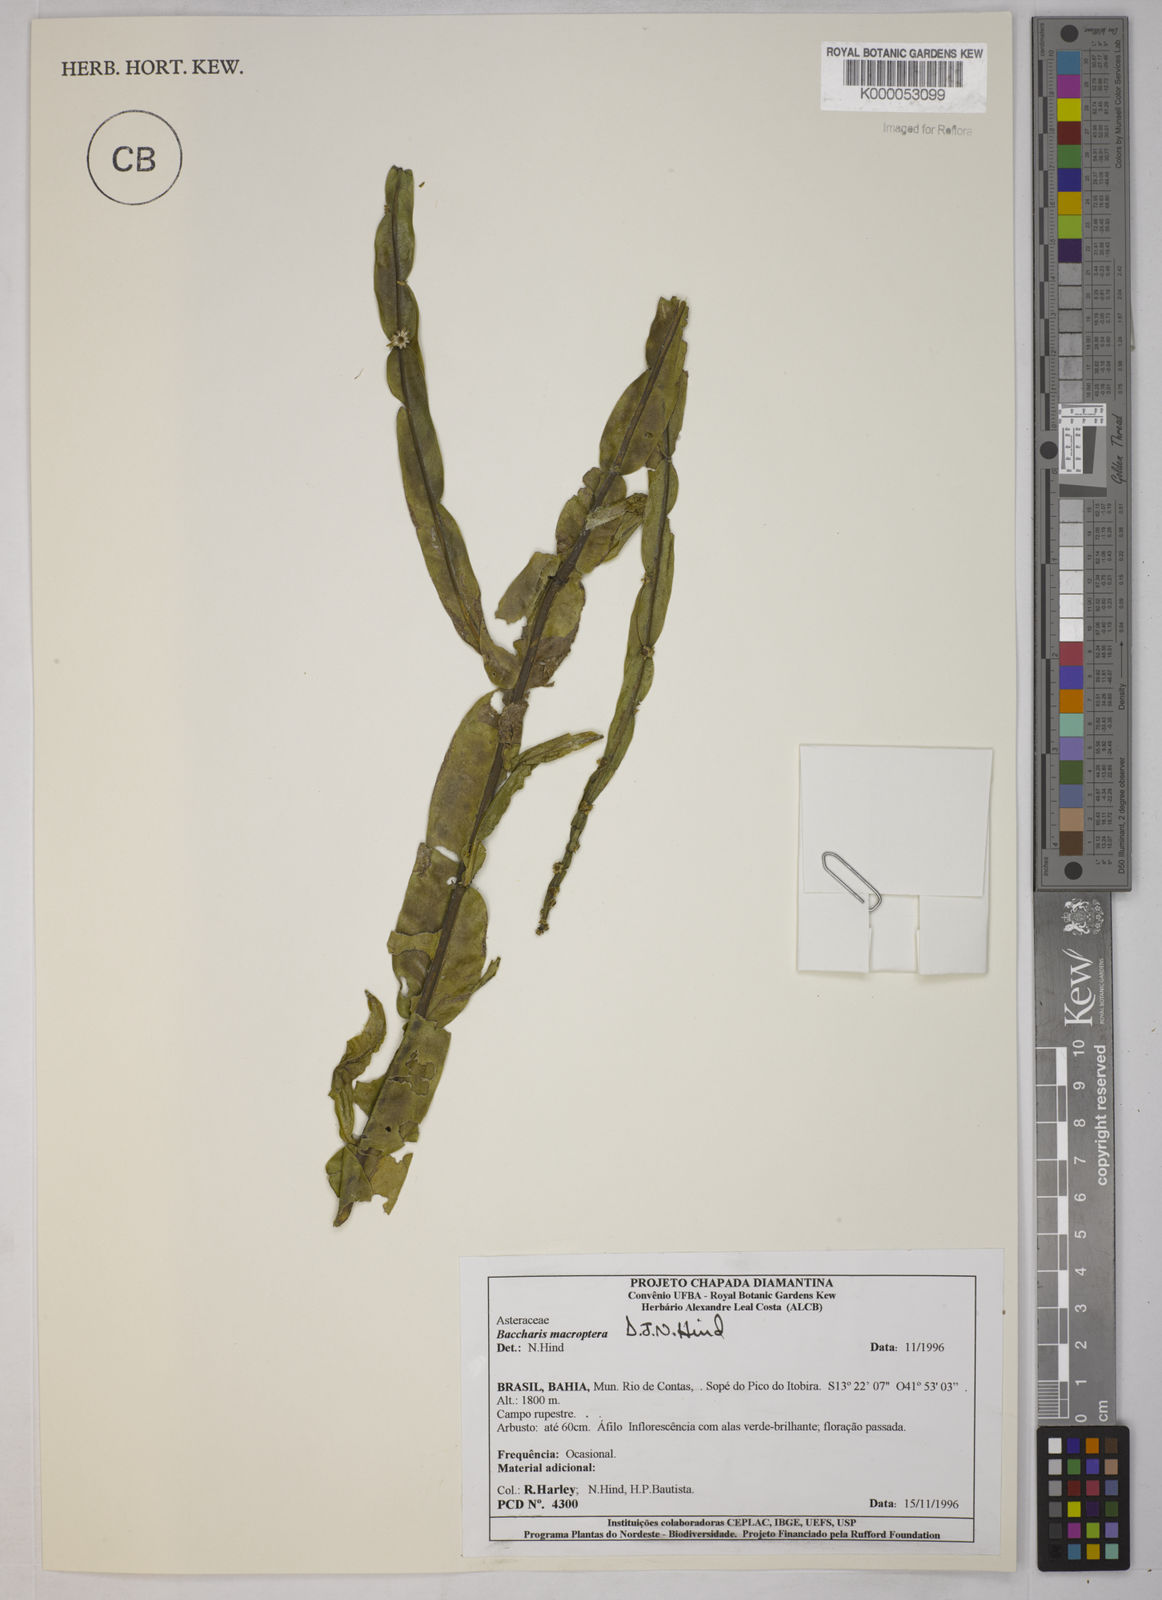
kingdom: Plantae
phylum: Tracheophyta
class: Magnoliopsida
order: Asterales
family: Asteraceae
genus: Baccharis
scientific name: Baccharis sagittalis
